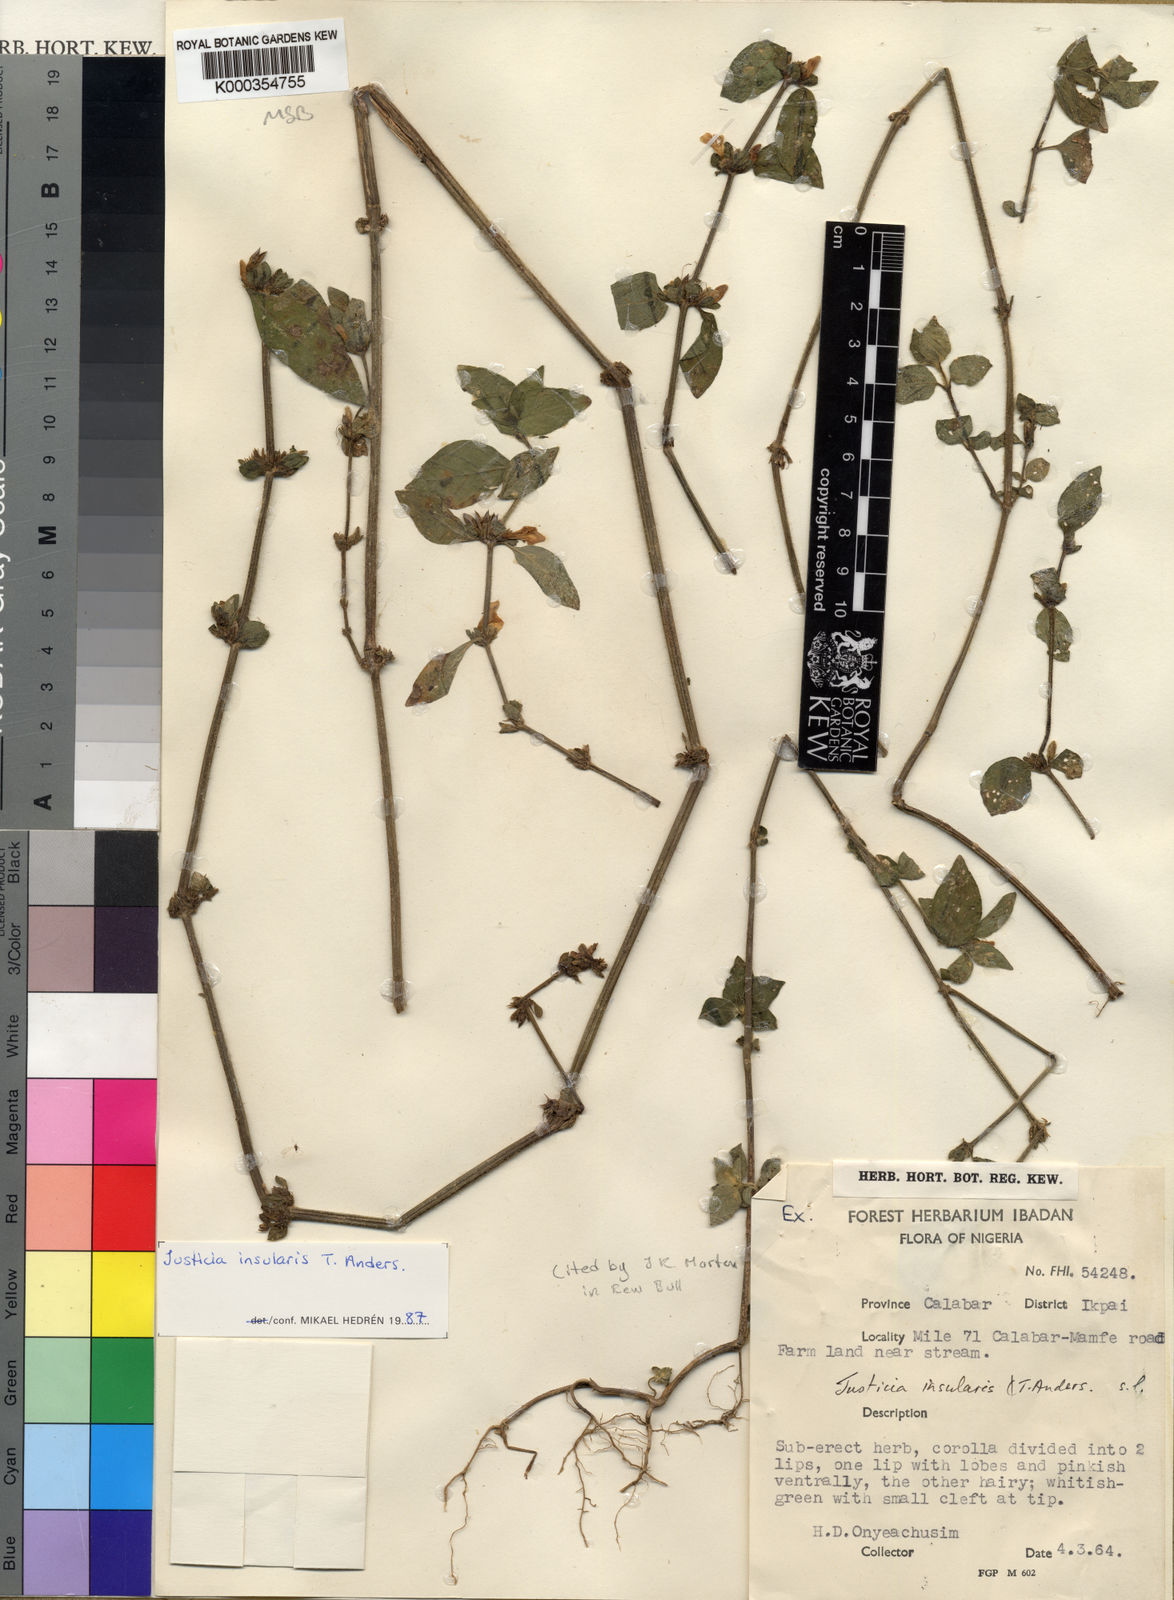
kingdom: Plantae
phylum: Tracheophyta
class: Magnoliopsida
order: Lamiales
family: Acanthaceae
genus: Justicia
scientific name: Justicia insularis
